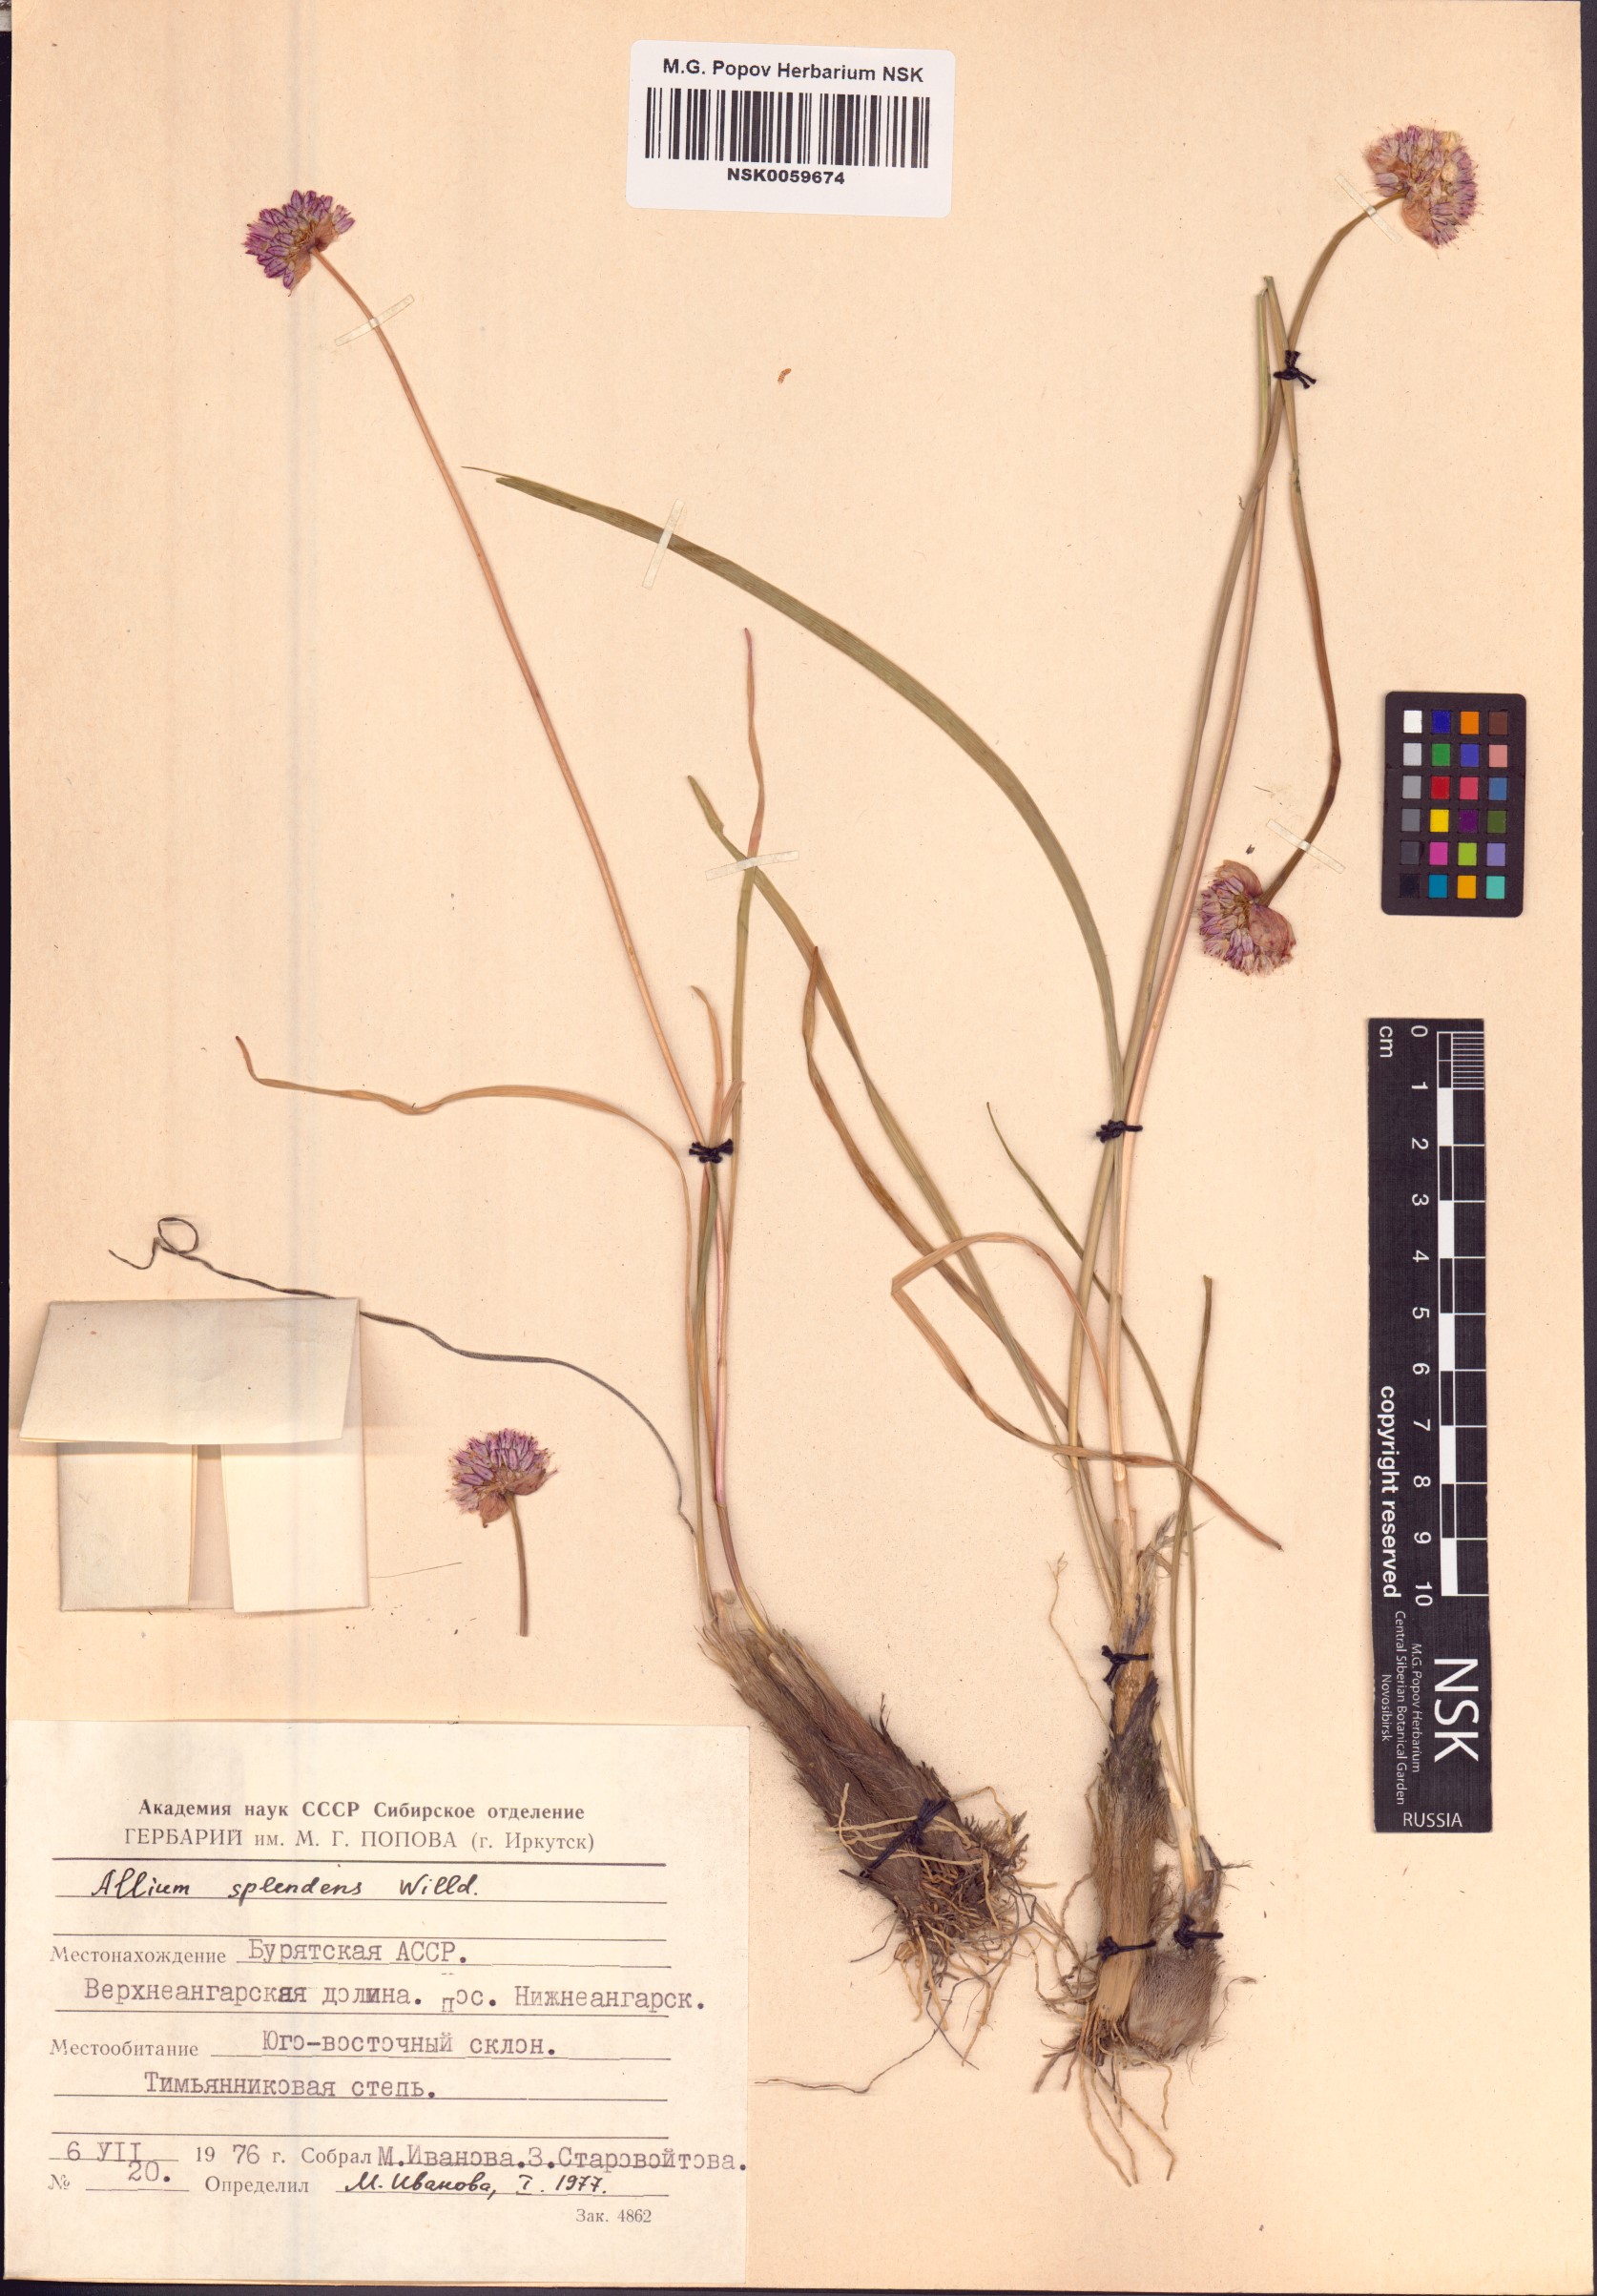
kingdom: Plantae
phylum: Tracheophyta
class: Liliopsida
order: Asparagales
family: Amaryllidaceae
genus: Allium
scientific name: Allium splendens
